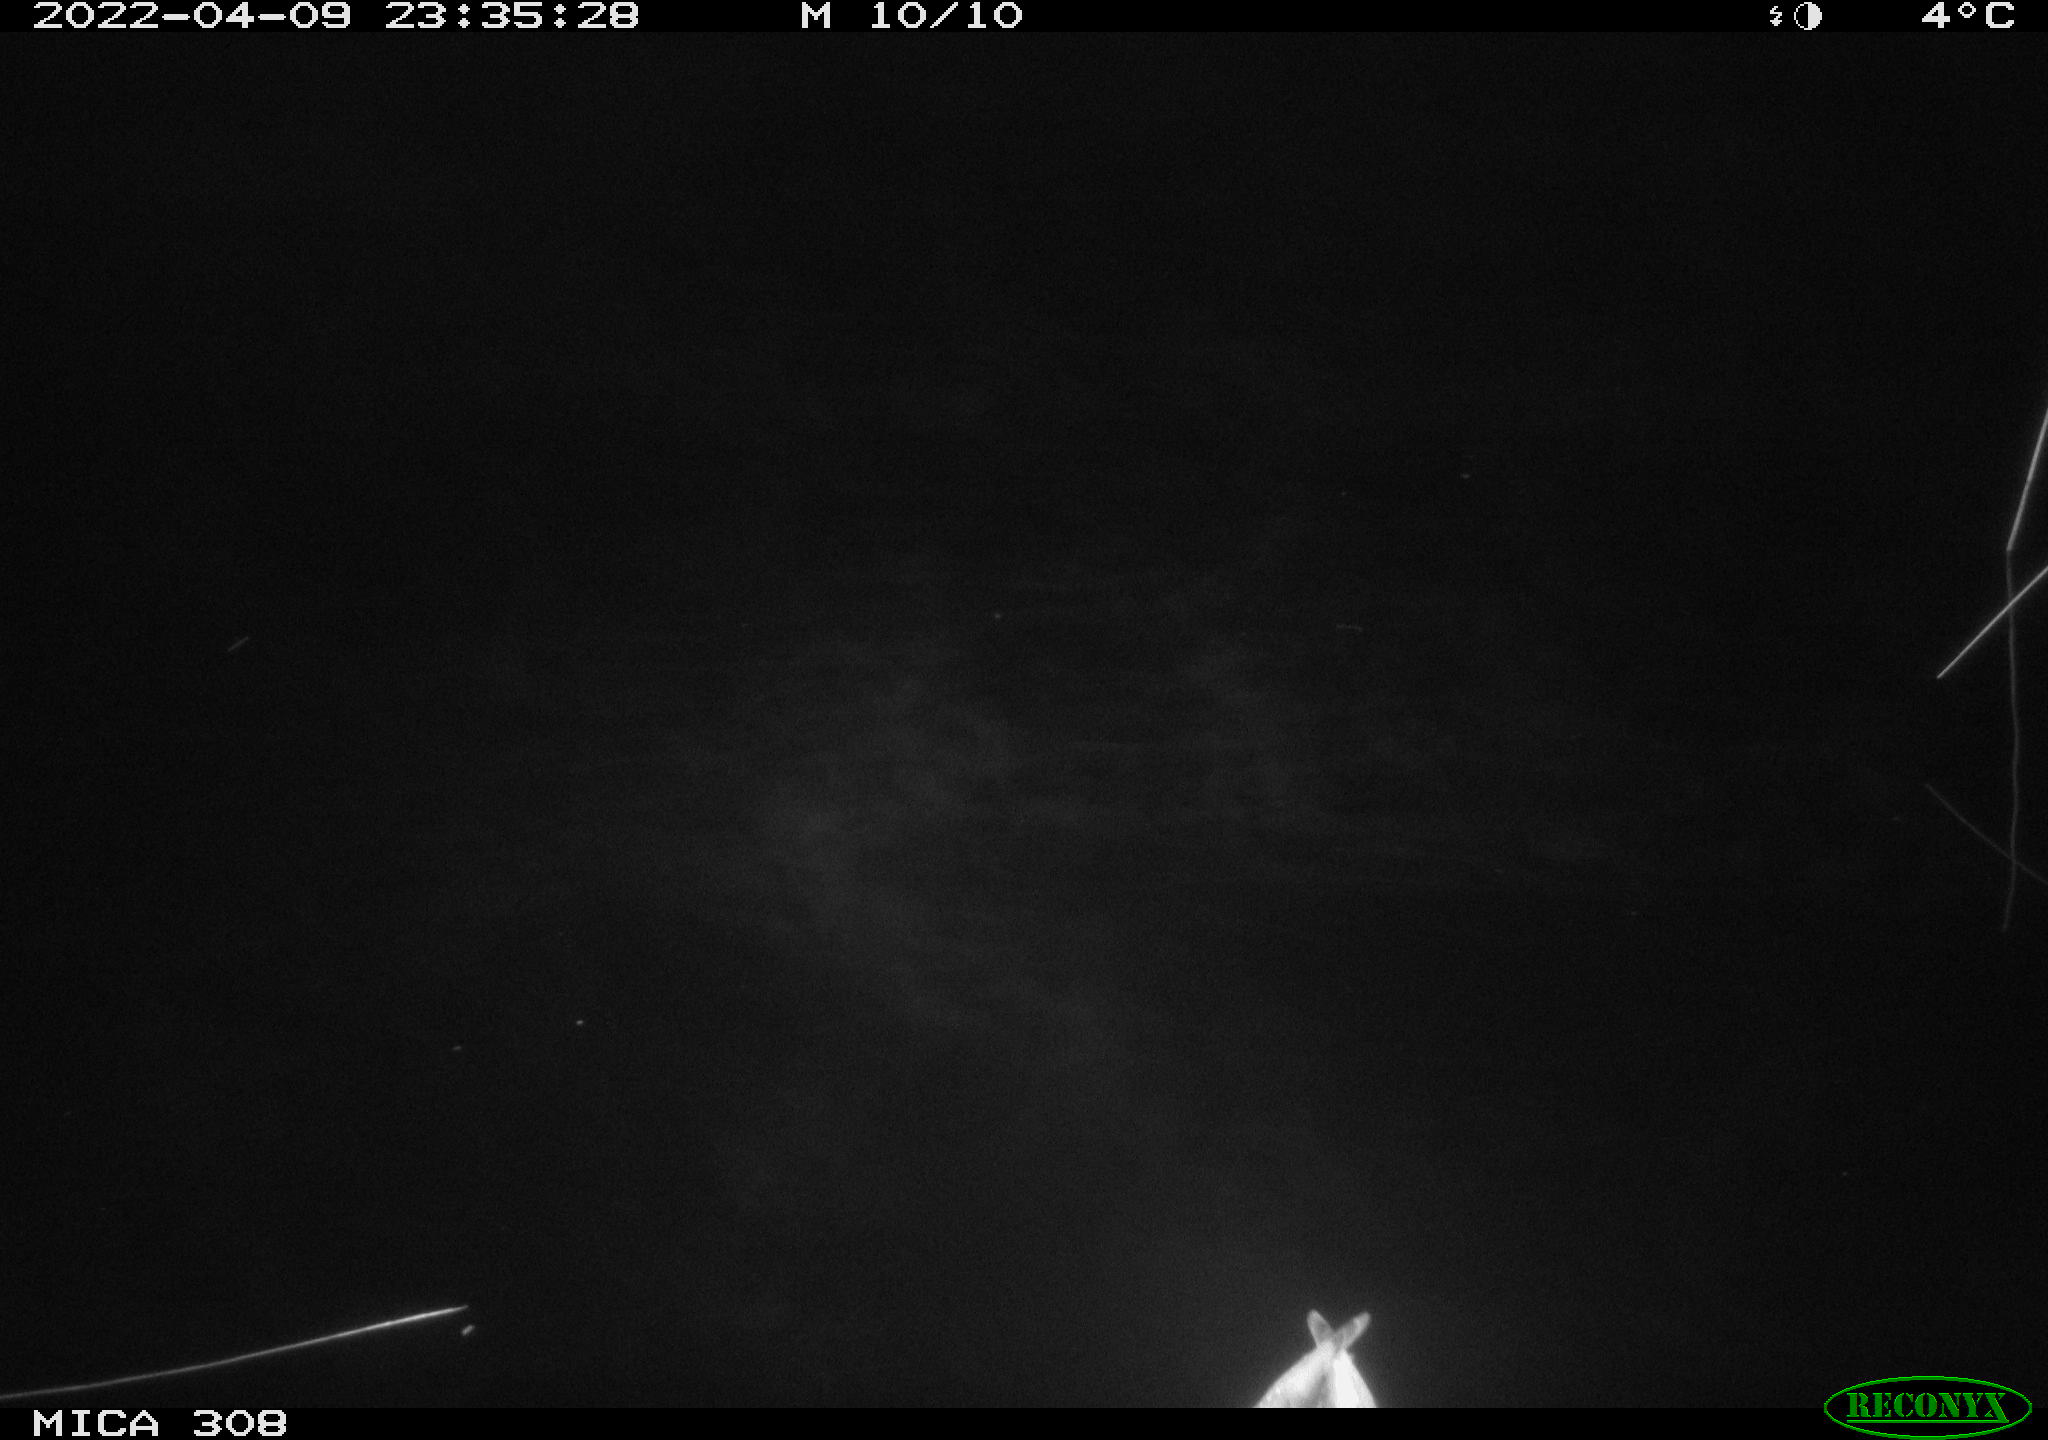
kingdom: Animalia
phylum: Chordata
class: Aves
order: Anseriformes
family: Anatidae
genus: Anas
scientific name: Anas platyrhynchos
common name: Mallard
